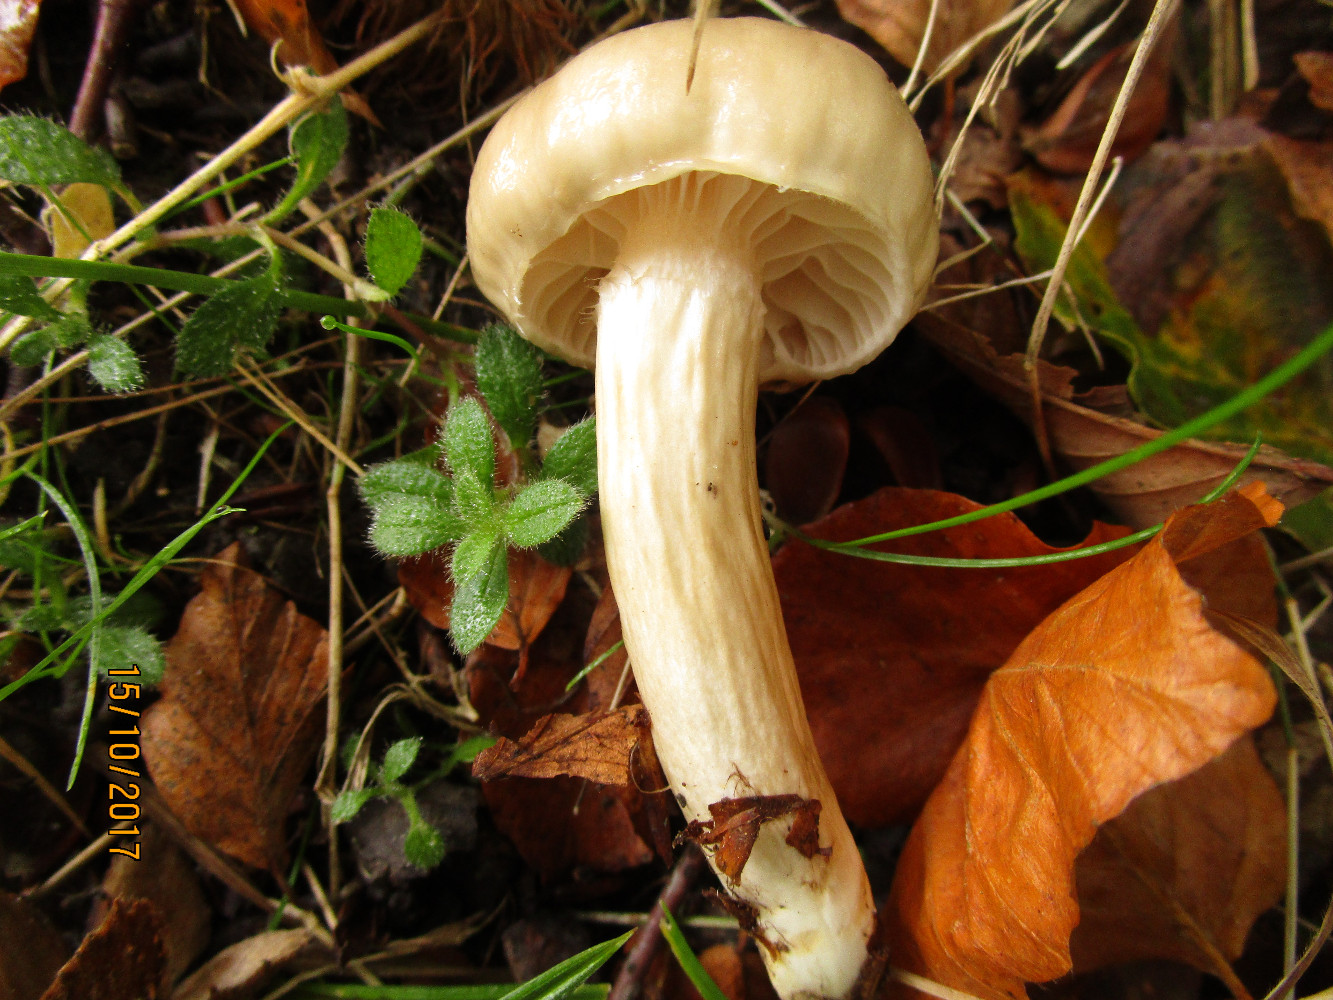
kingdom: Fungi
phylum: Basidiomycota
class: Agaricomycetes
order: Agaricales
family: Hygrophoraceae
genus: Hygrophorus
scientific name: Hygrophorus mesotephrus
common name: askegrå sneglehat
